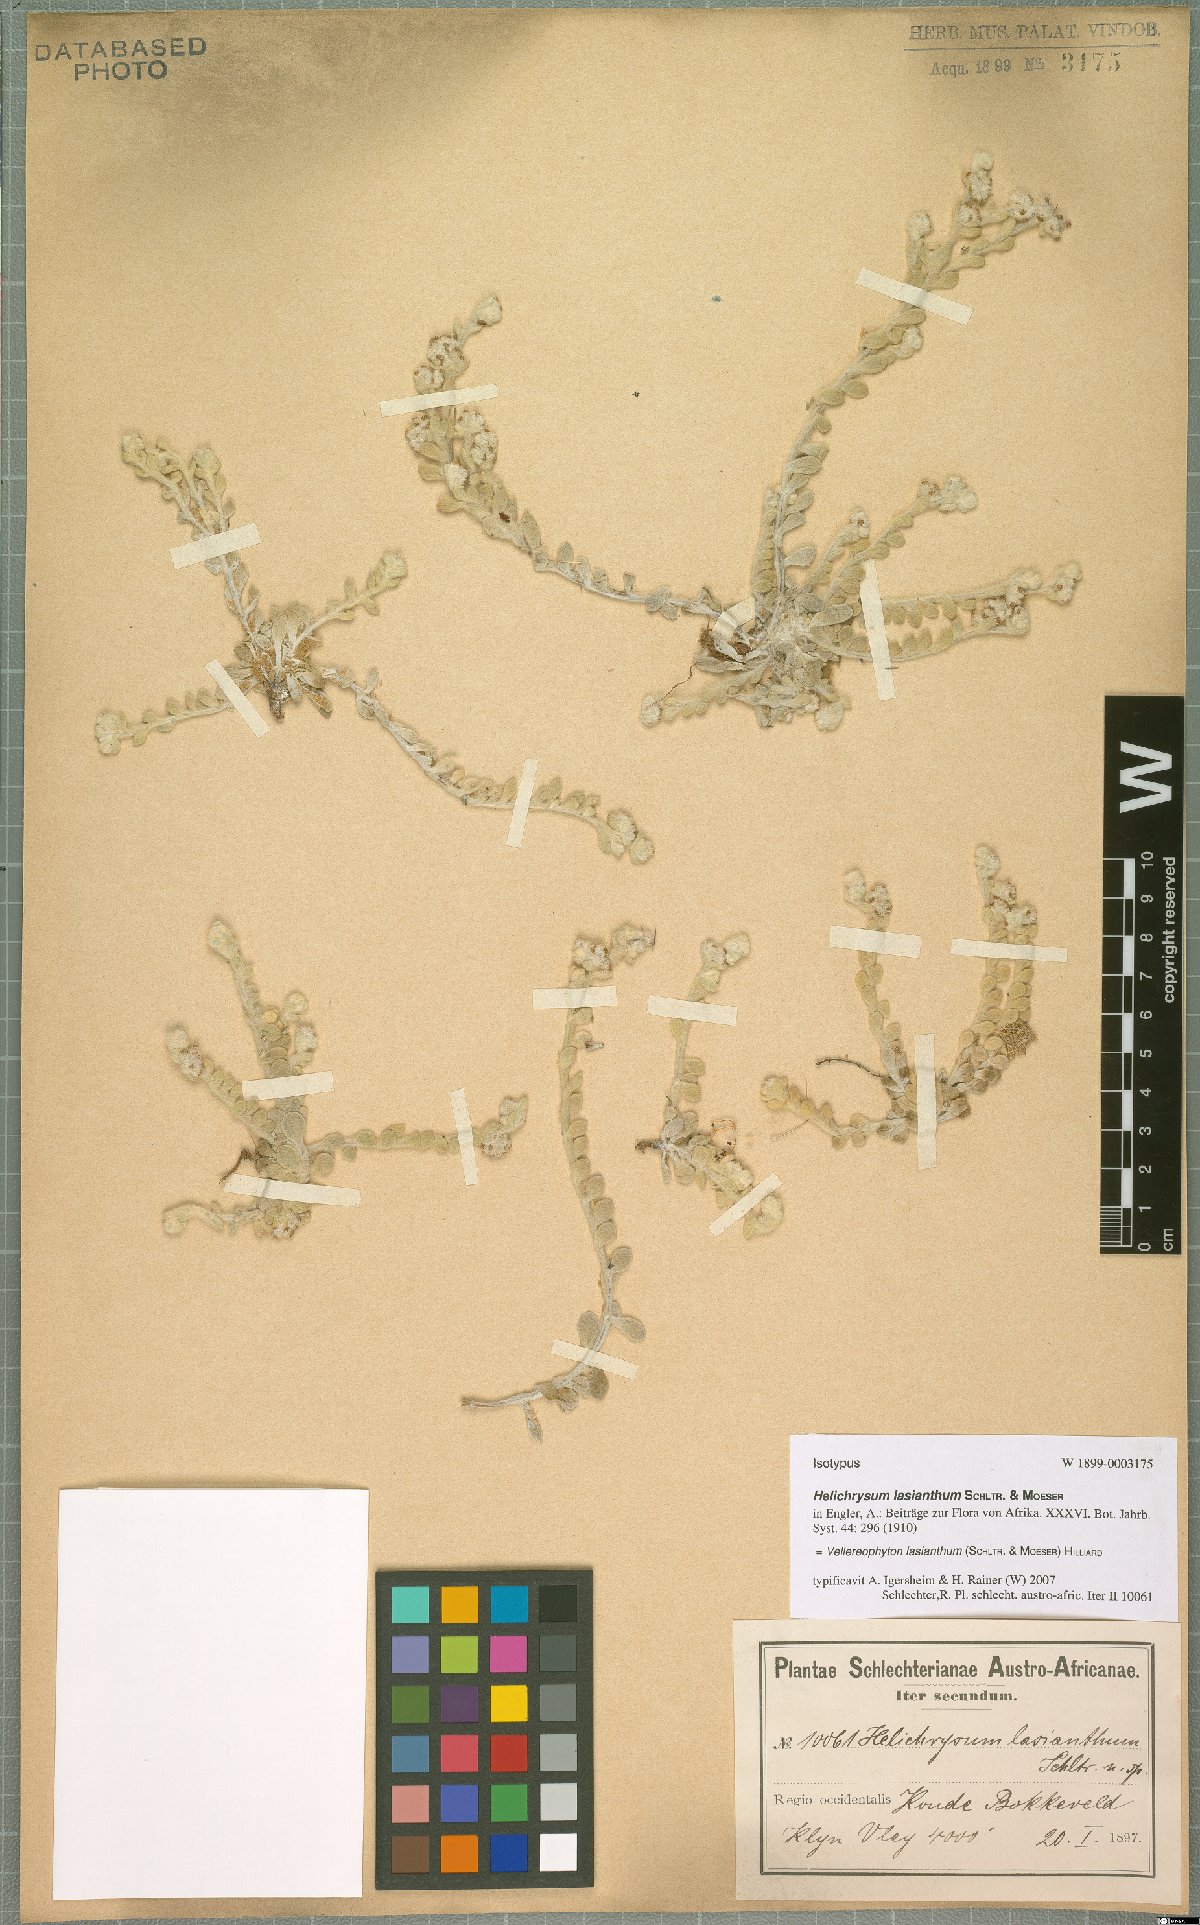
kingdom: Plantae
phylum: Tracheophyta
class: Magnoliopsida
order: Asterales
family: Asteraceae
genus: Vellereophyton
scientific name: Vellereophyton lasianthum
